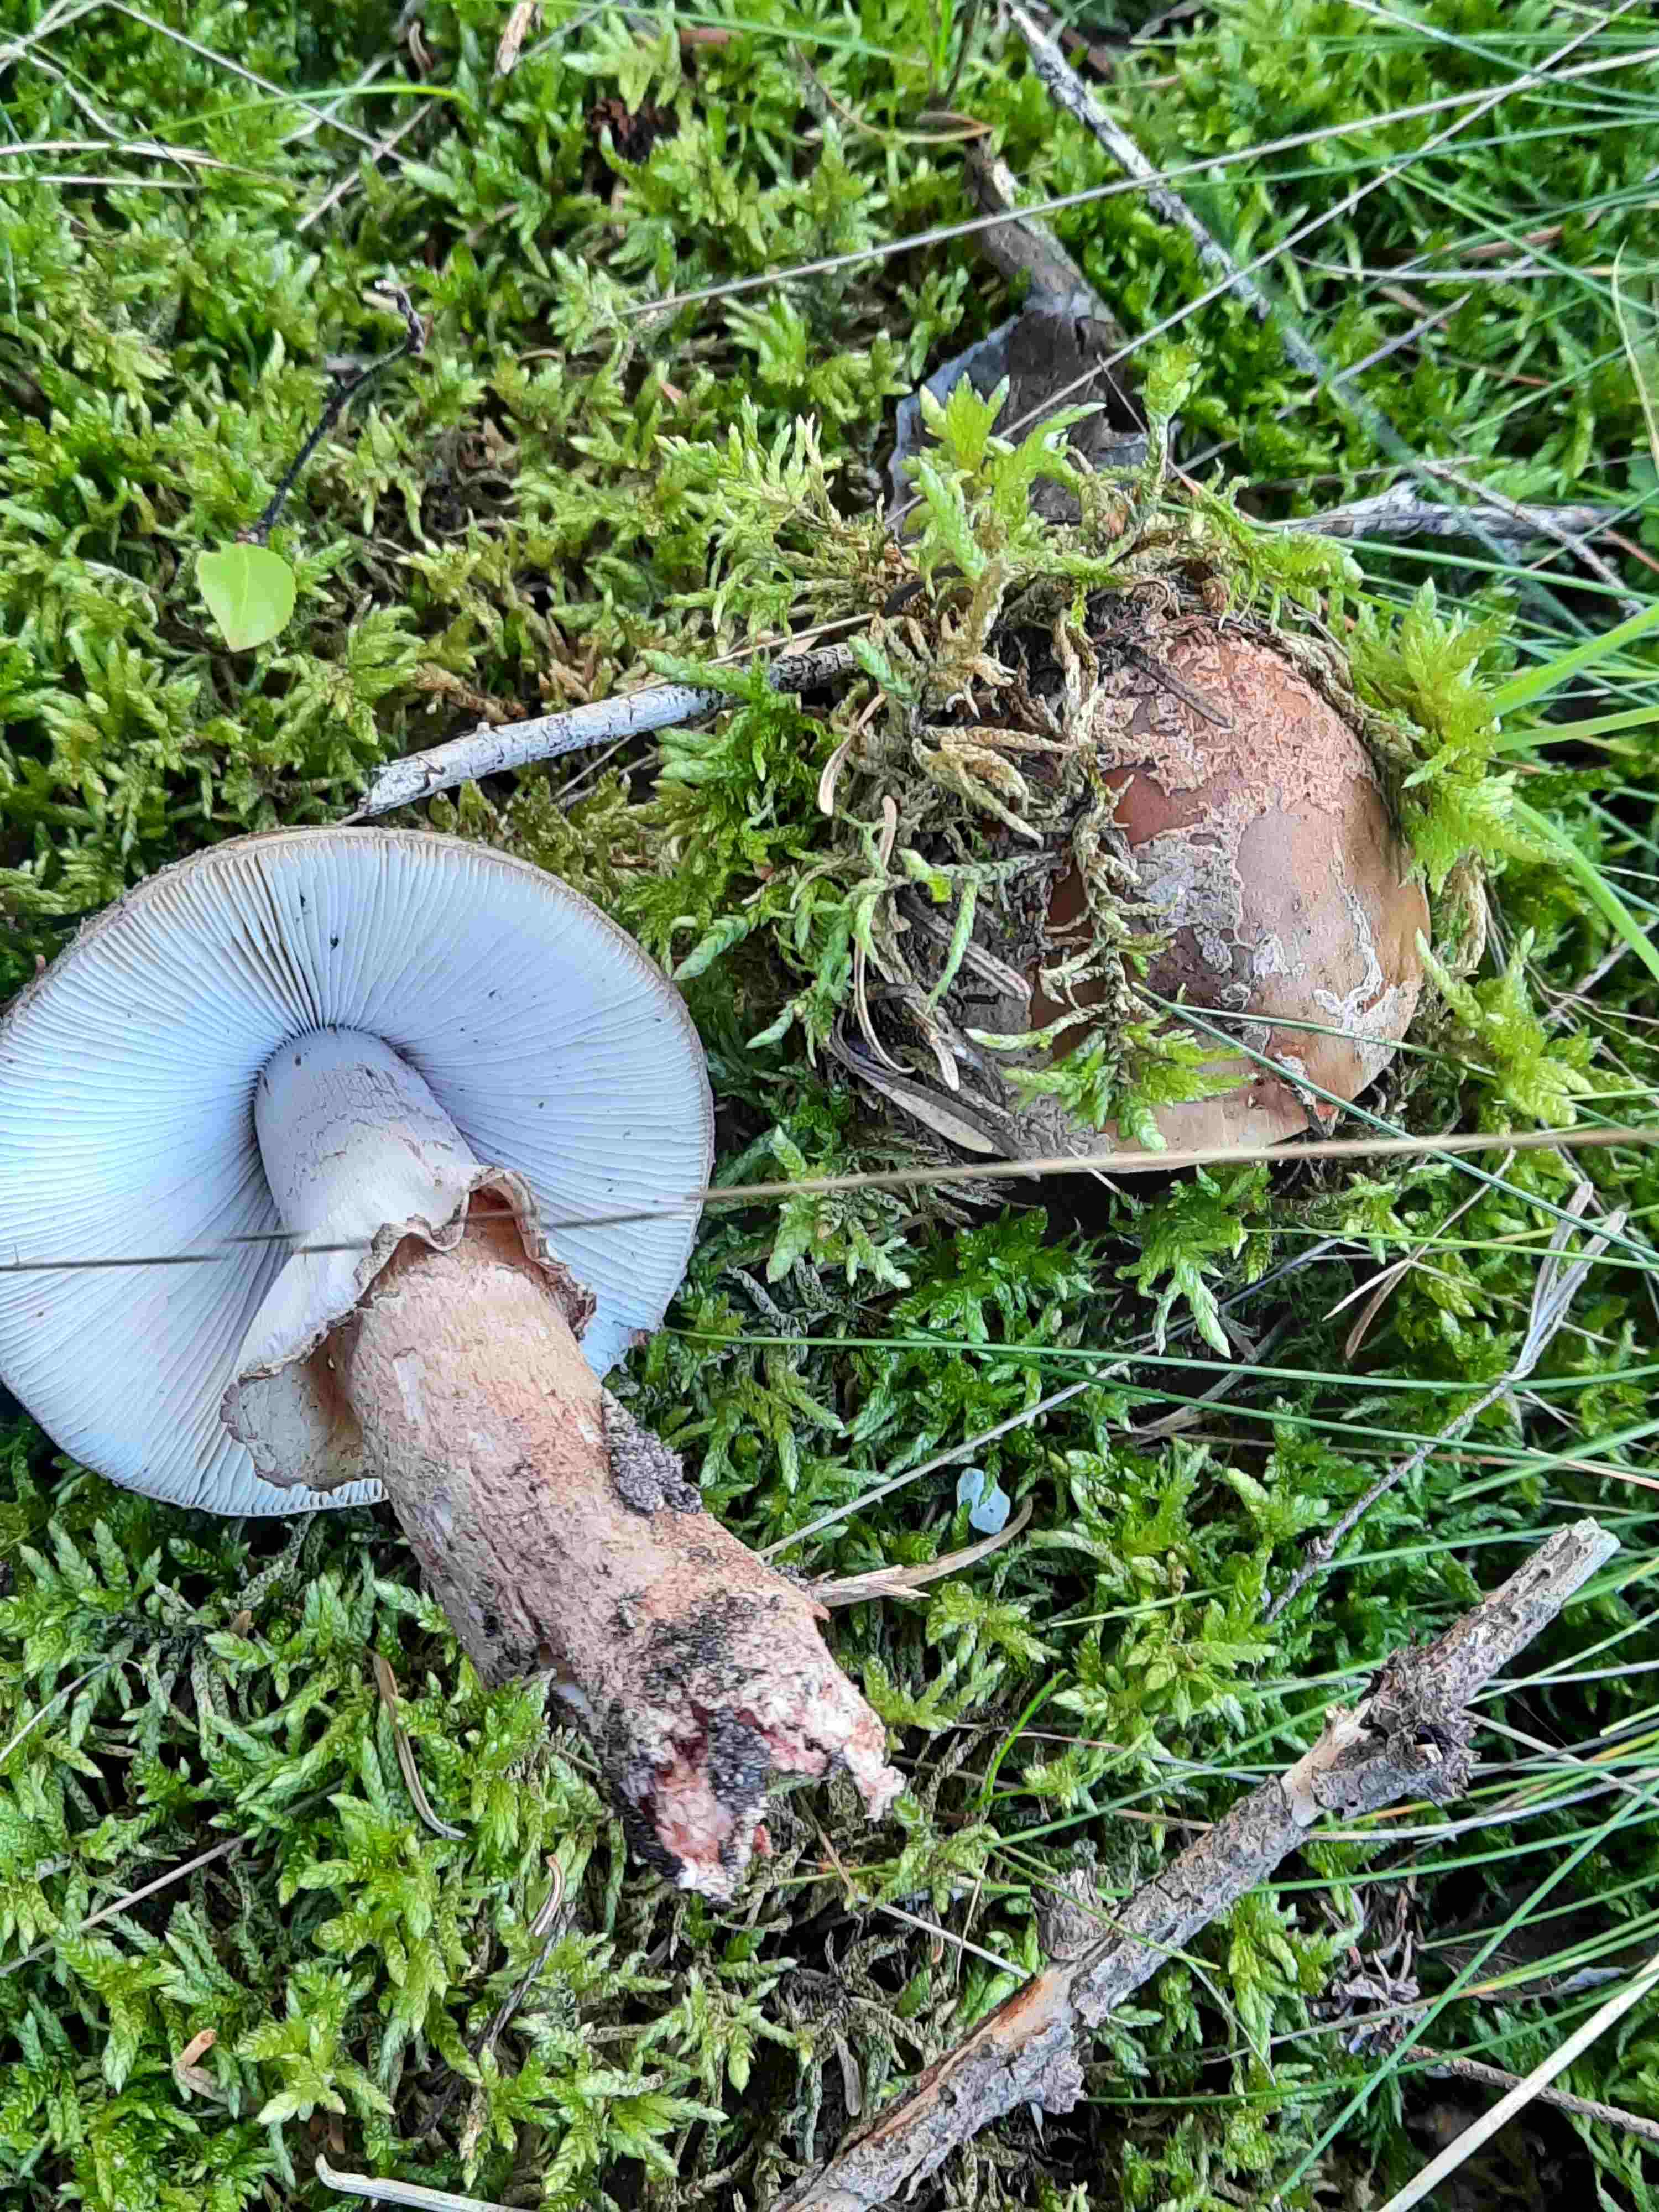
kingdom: Fungi
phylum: Basidiomycota
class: Agaricomycetes
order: Agaricales
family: Amanitaceae
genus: Amanita
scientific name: Amanita rubescens
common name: rødmende fluesvamp
